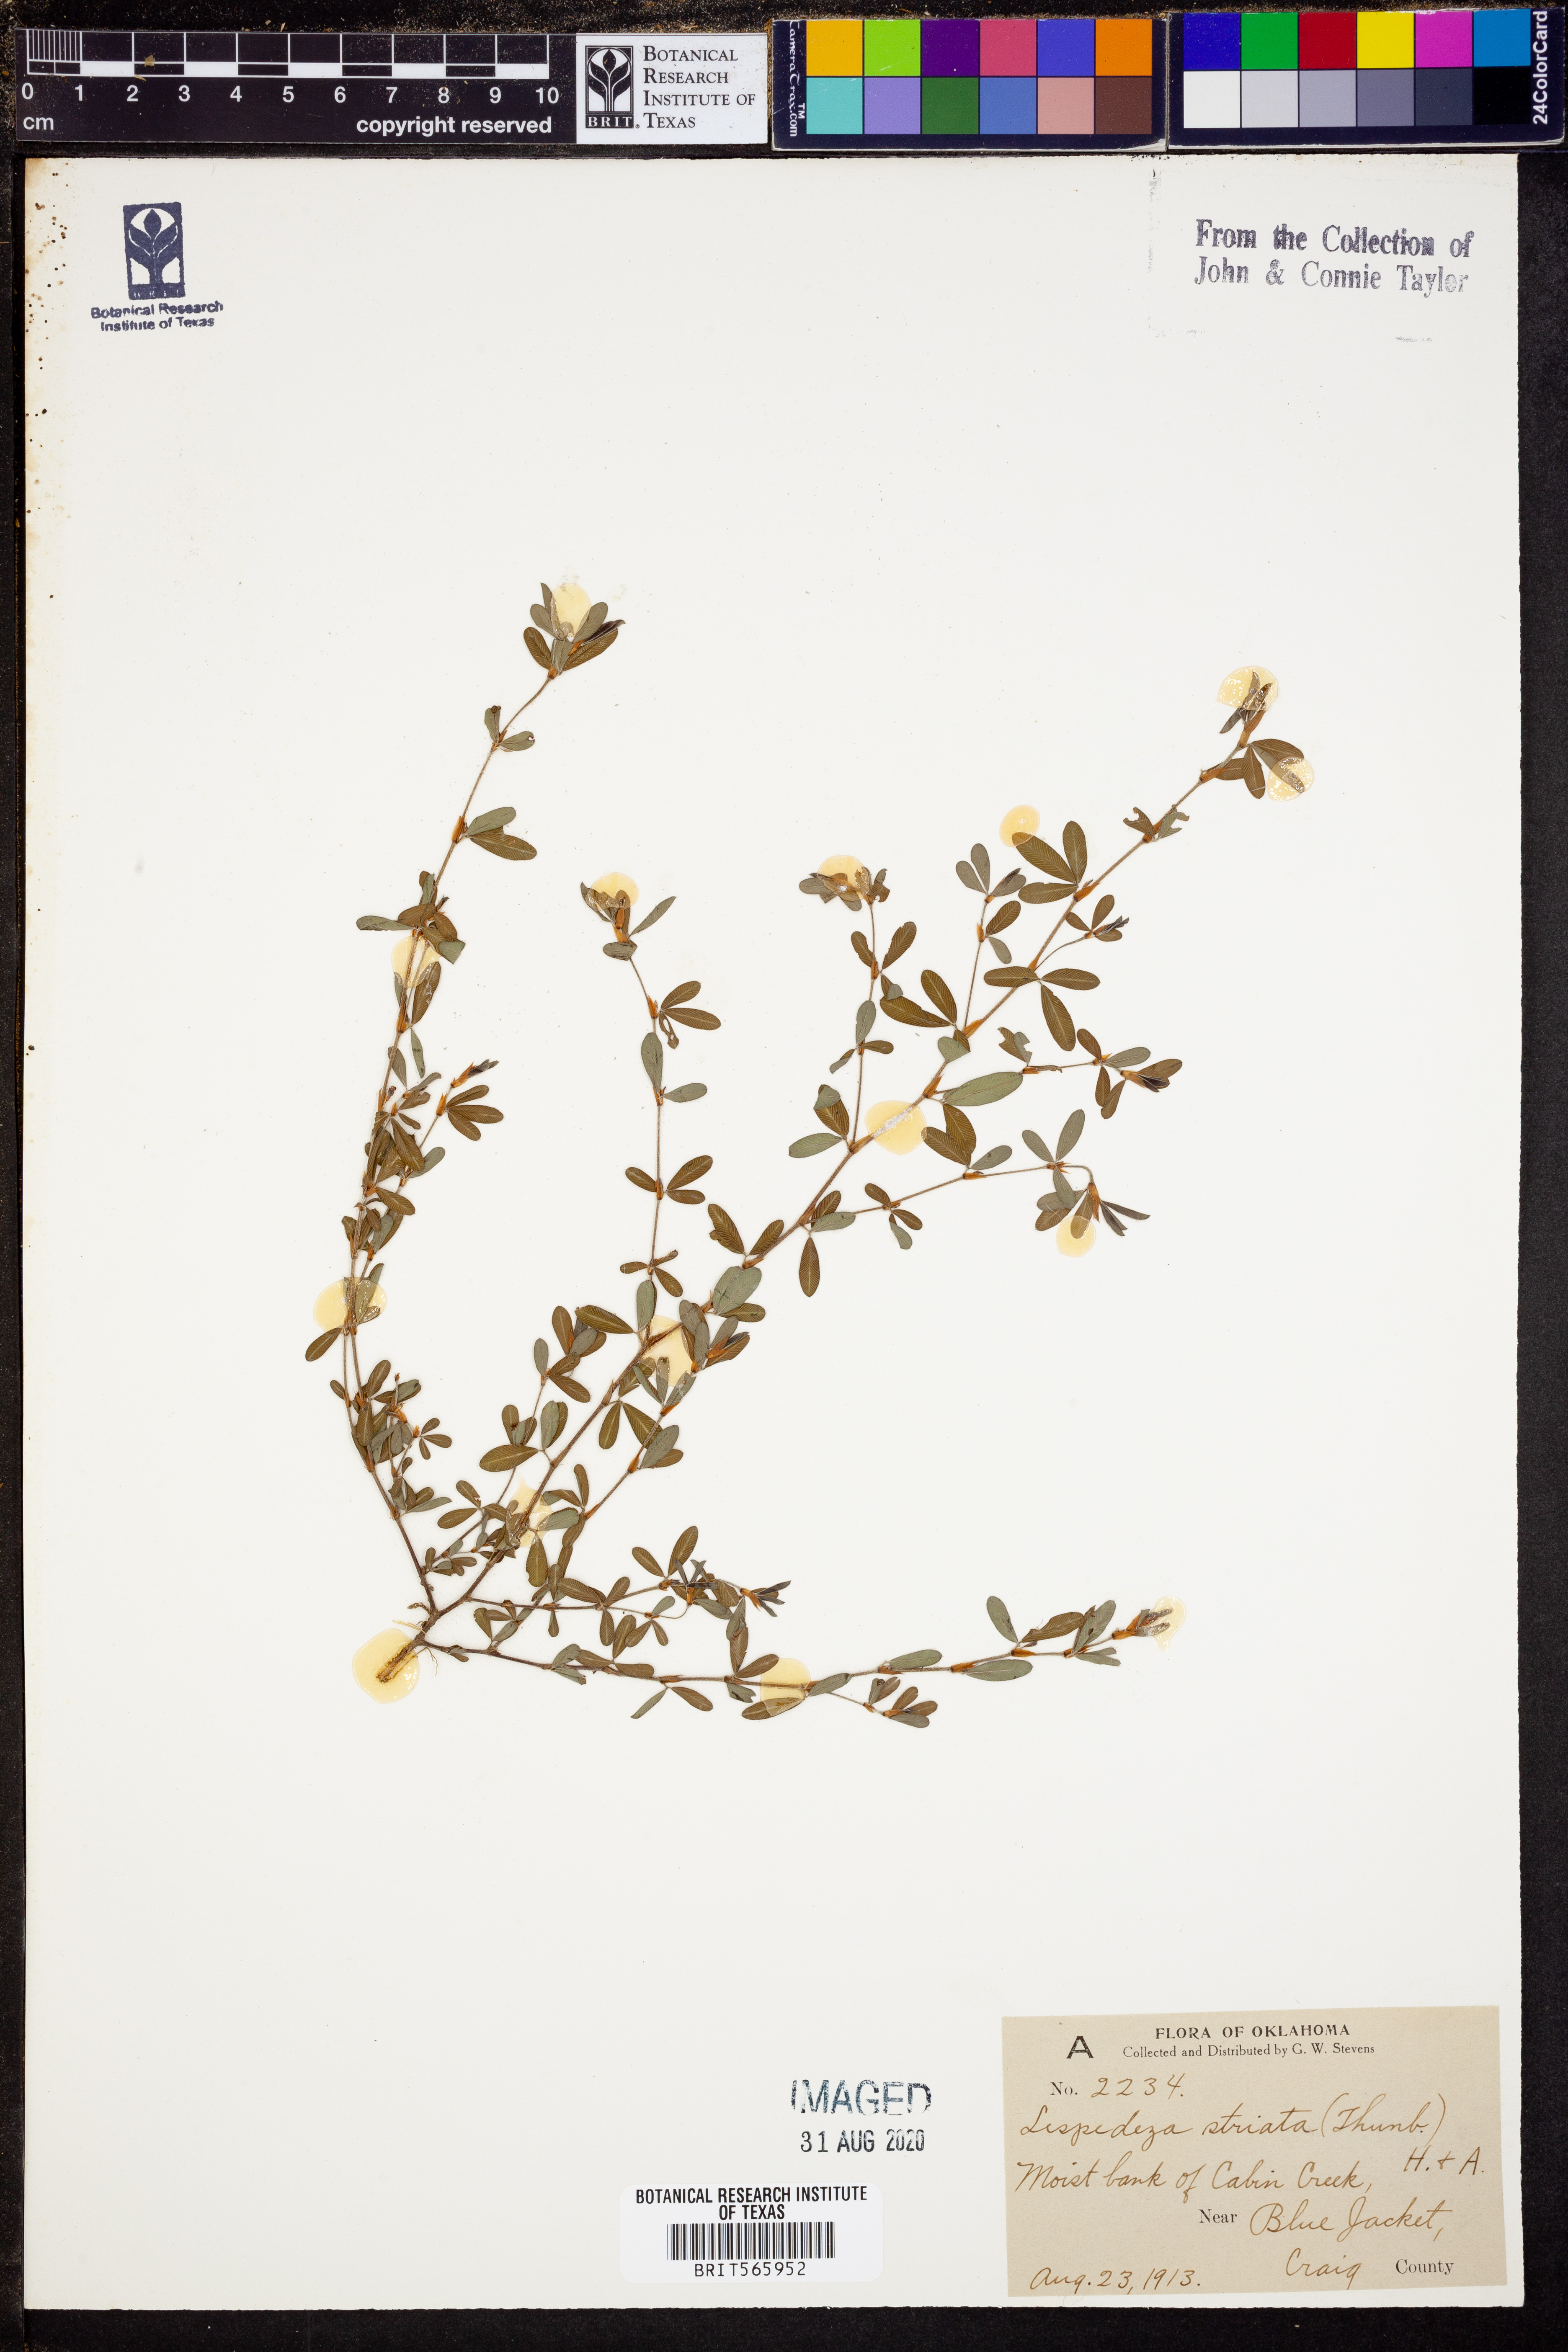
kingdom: Plantae
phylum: Tracheophyta
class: Magnoliopsida
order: Fabales
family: Fabaceae
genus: Kummerowia
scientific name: Kummerowia striata
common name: Japanese clover
